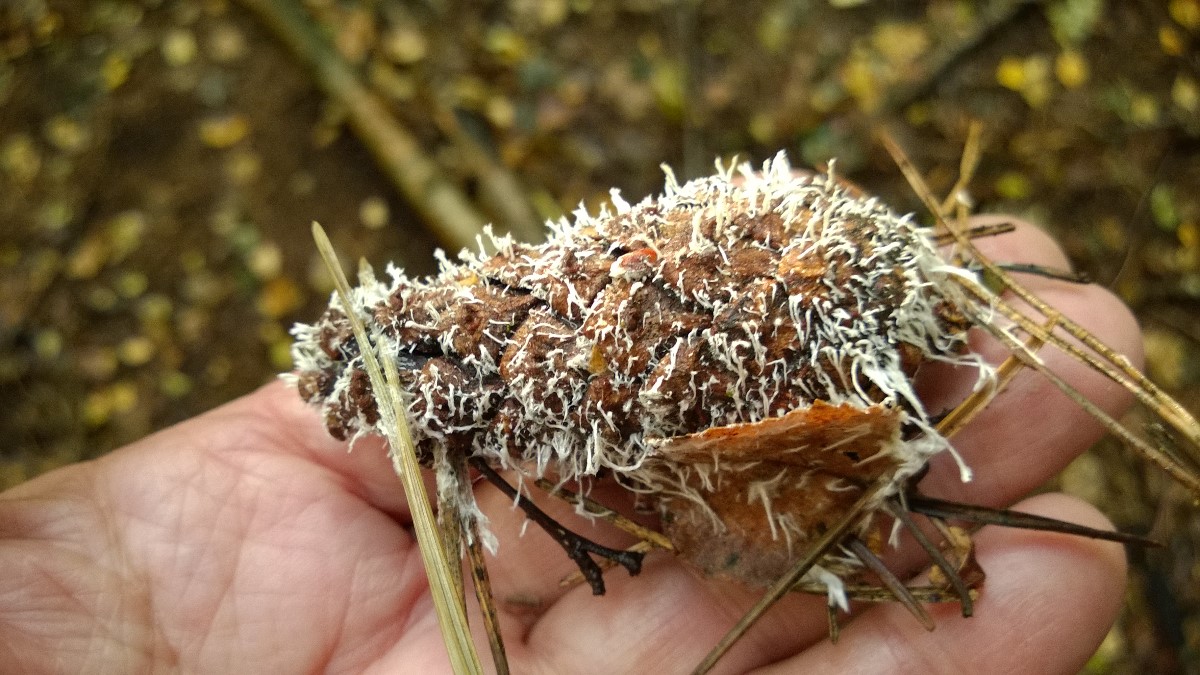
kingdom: Fungi
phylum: Basidiomycota
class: Pucciniomycetes
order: Pucciniales
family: Phragmidiaceae
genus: Phragmidium
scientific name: Phragmidium violaceum
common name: violet flercellerust
